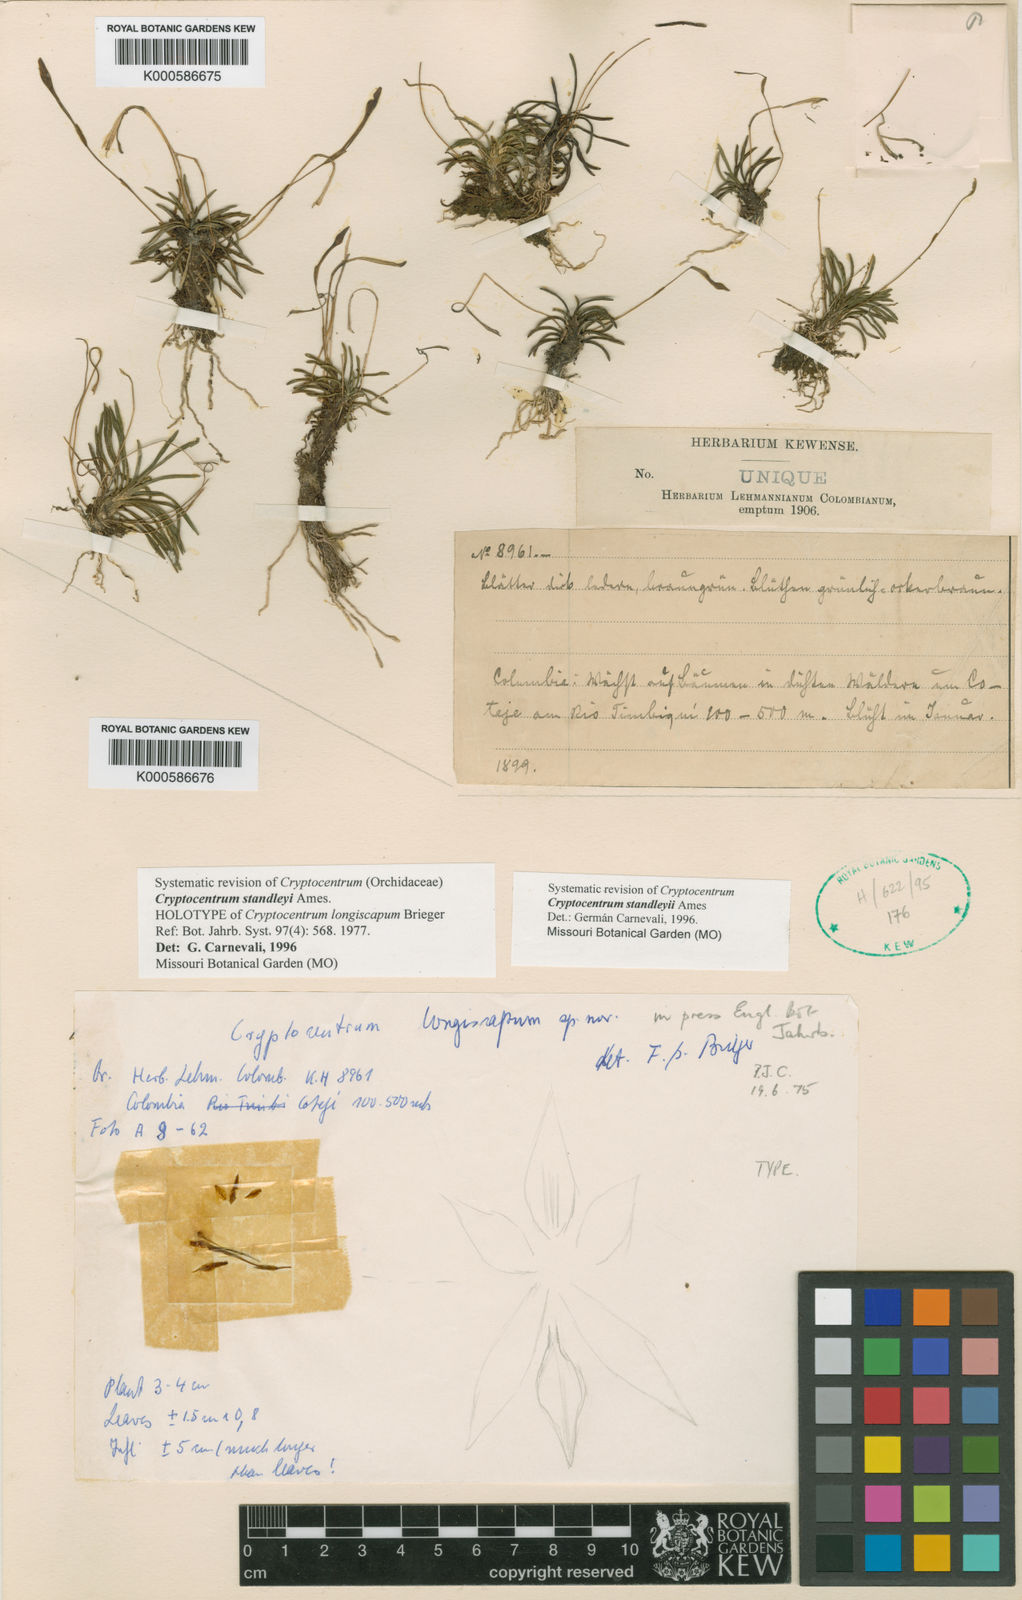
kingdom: Plantae
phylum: Tracheophyta
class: Liliopsida
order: Asparagales
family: Orchidaceae
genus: Maxillaria
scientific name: Maxillaria standleyi
